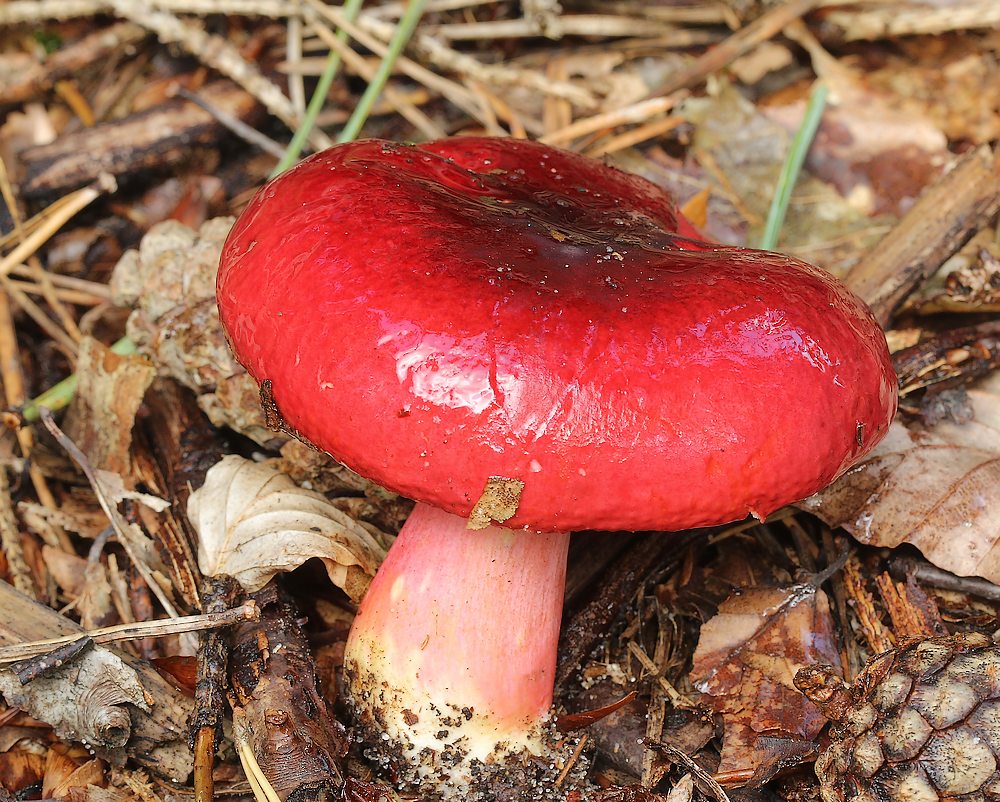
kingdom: Fungi
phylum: Basidiomycota
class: Agaricomycetes
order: Russulales
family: Russulaceae
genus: Russula
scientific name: Russula xerampelina
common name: hummer-skørhat
